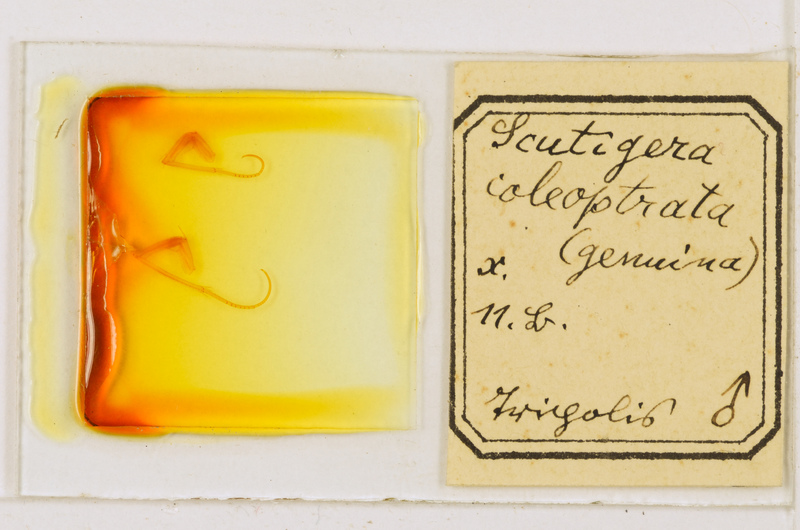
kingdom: Animalia
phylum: Arthropoda
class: Chilopoda
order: Scutigeromorpha
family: Scutigeridae
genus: Scutigera
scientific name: Scutigera coleoptrata
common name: House centipede
